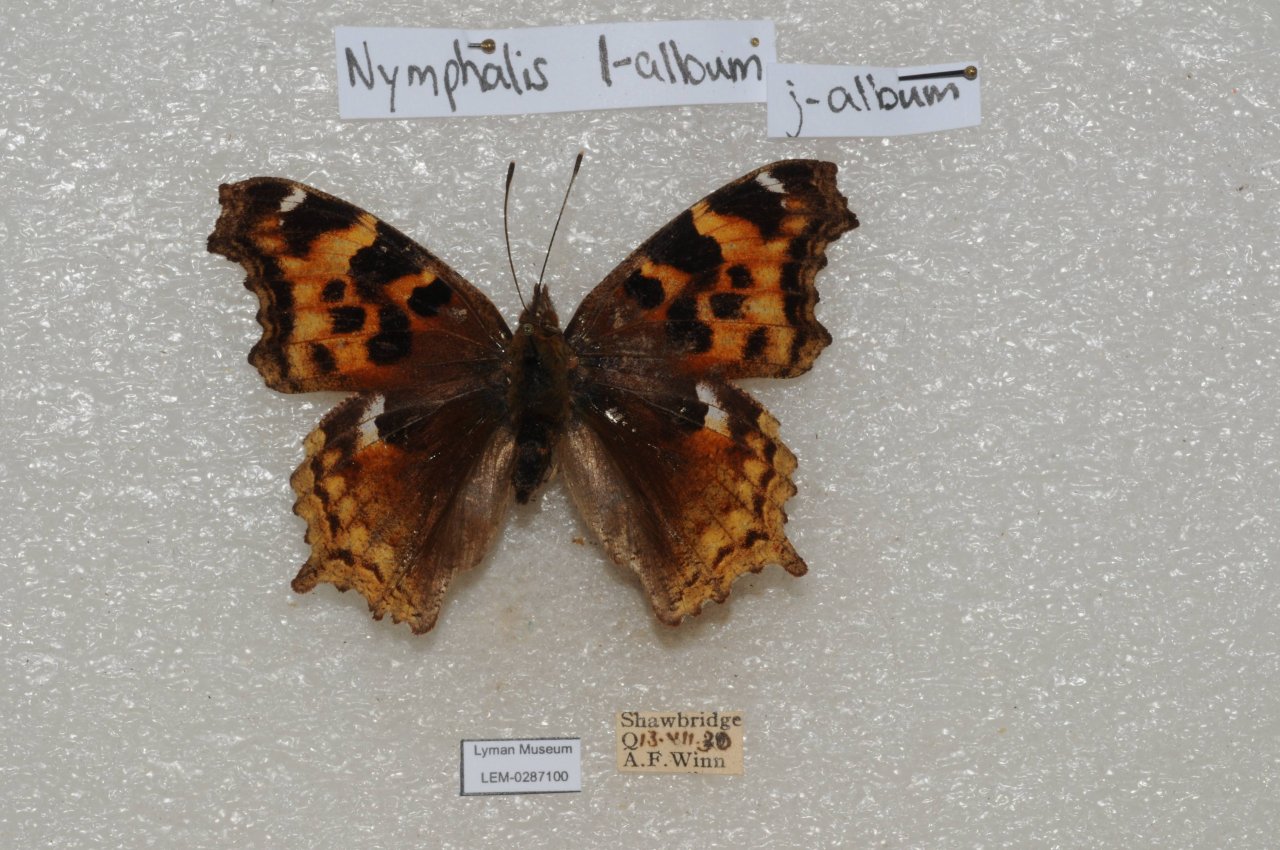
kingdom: Animalia
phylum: Arthropoda
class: Insecta
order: Lepidoptera
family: Nymphalidae
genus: Polygonia
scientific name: Polygonia vaualbum
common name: Compton Tortoiseshell
